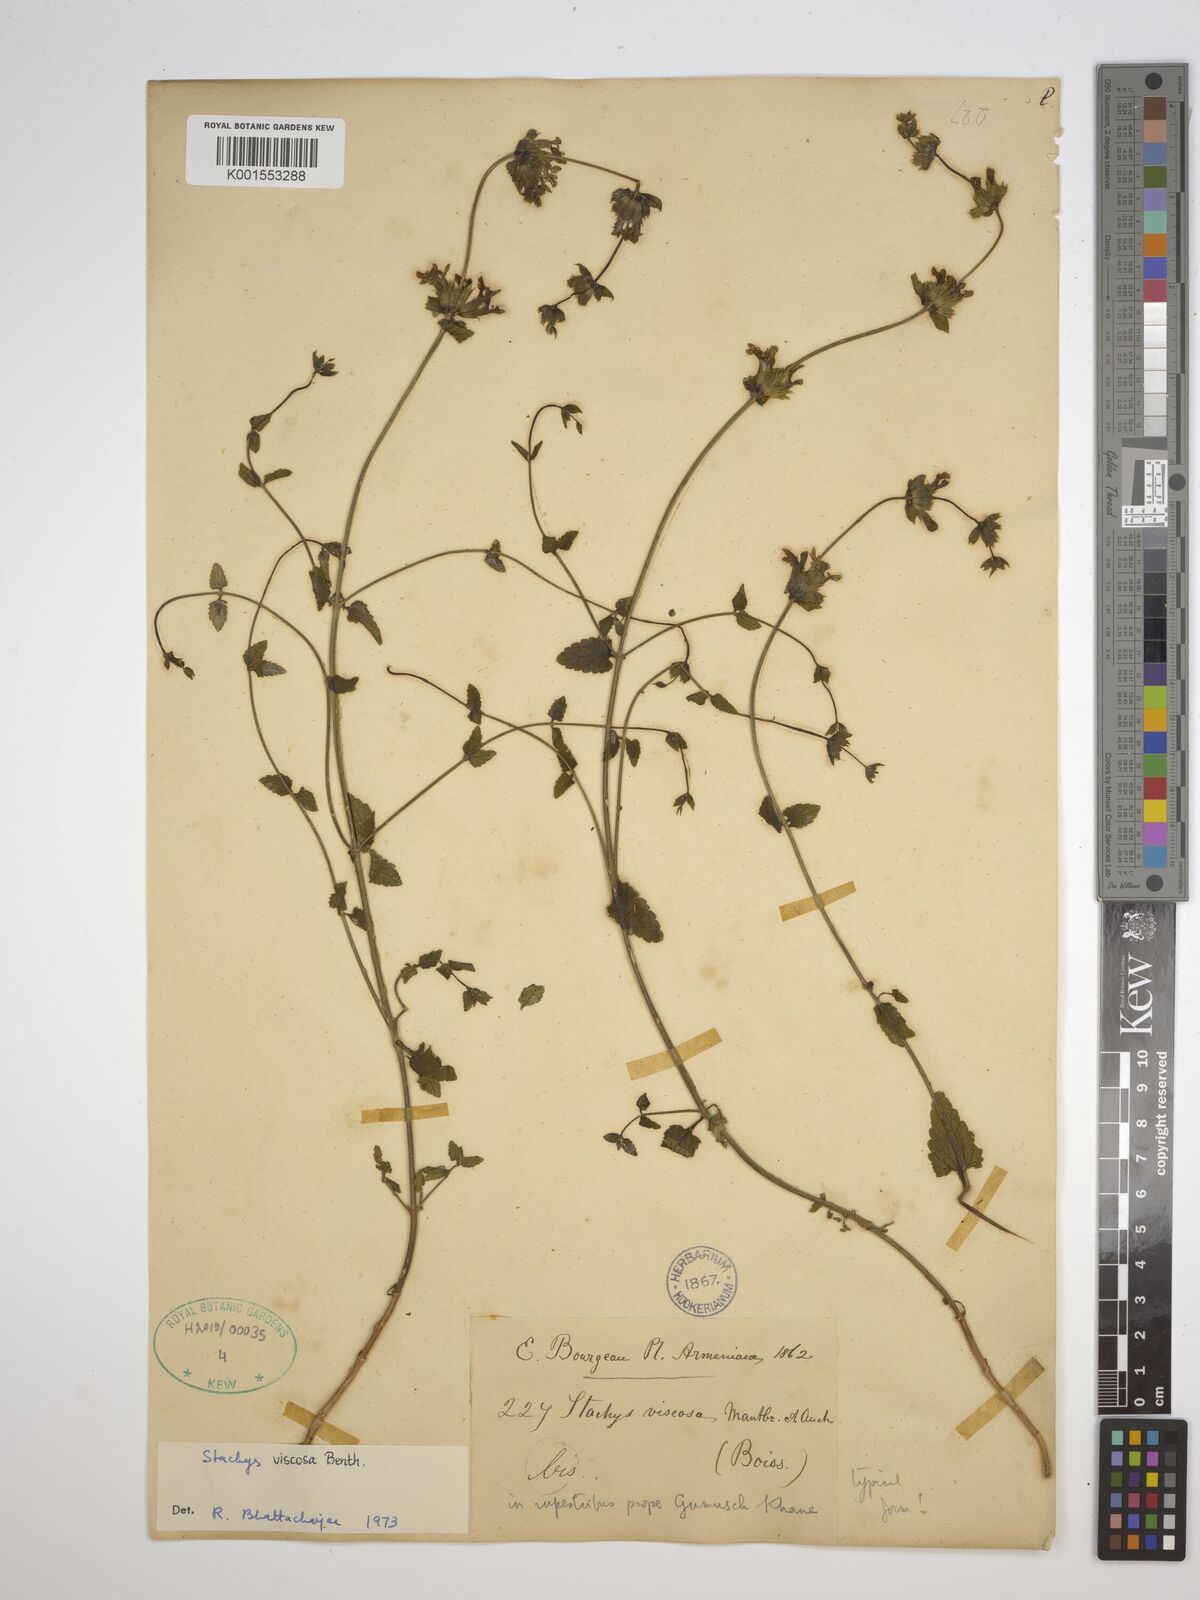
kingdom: Plantae
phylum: Tracheophyta
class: Magnoliopsida
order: Lamiales
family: Lamiaceae
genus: Stachys
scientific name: Stachys viscosa
